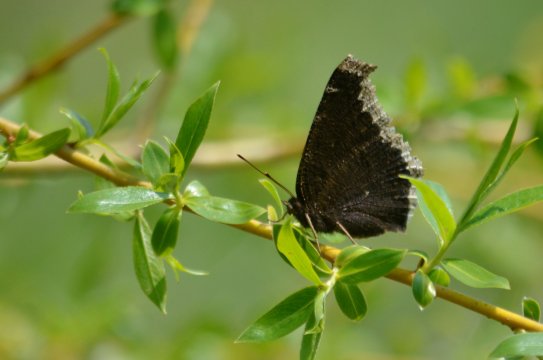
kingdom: Animalia
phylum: Arthropoda
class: Insecta
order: Lepidoptera
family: Nymphalidae
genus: Nymphalis
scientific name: Nymphalis antiopa
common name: Mourning Cloak
